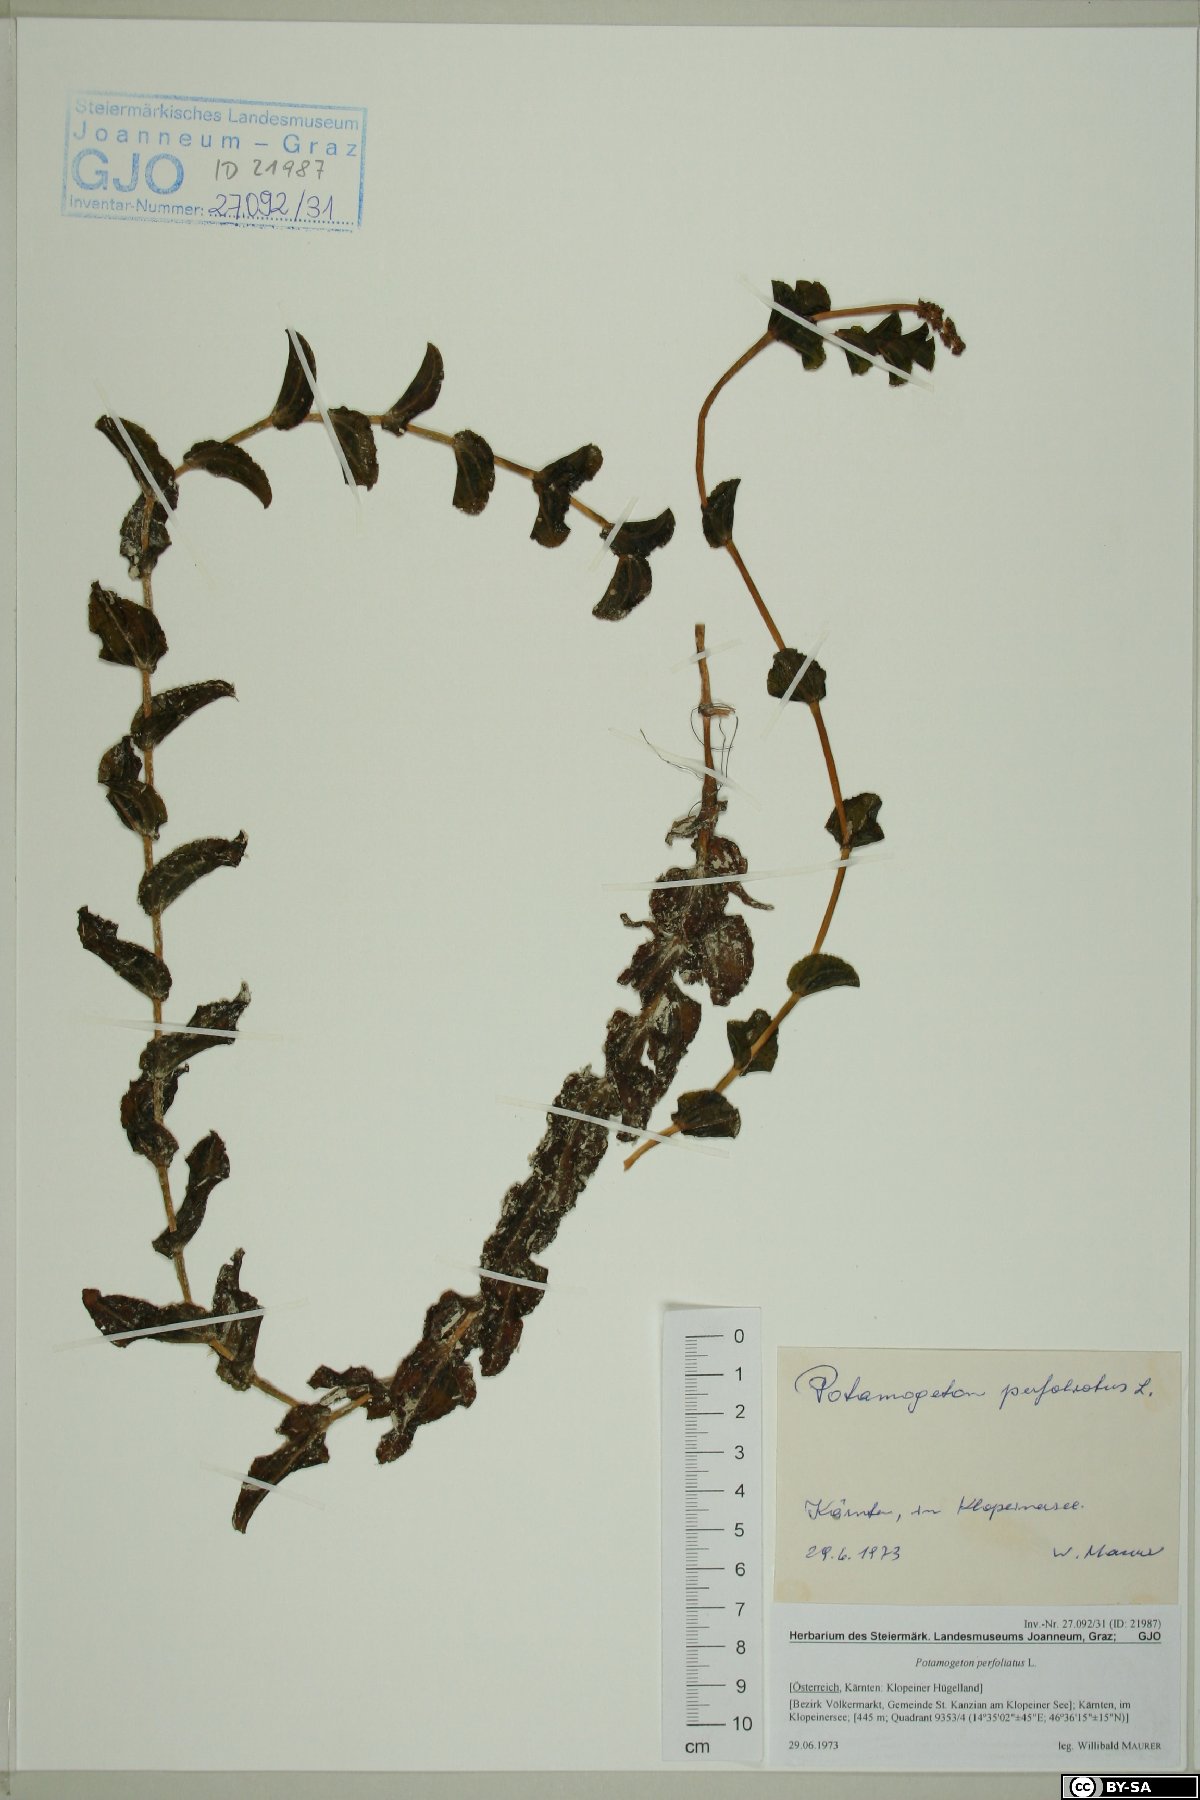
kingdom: Plantae
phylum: Tracheophyta
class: Liliopsida
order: Alismatales
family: Potamogetonaceae
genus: Potamogeton
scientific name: Potamogeton perfoliatus
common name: Perfoliate pondweed
